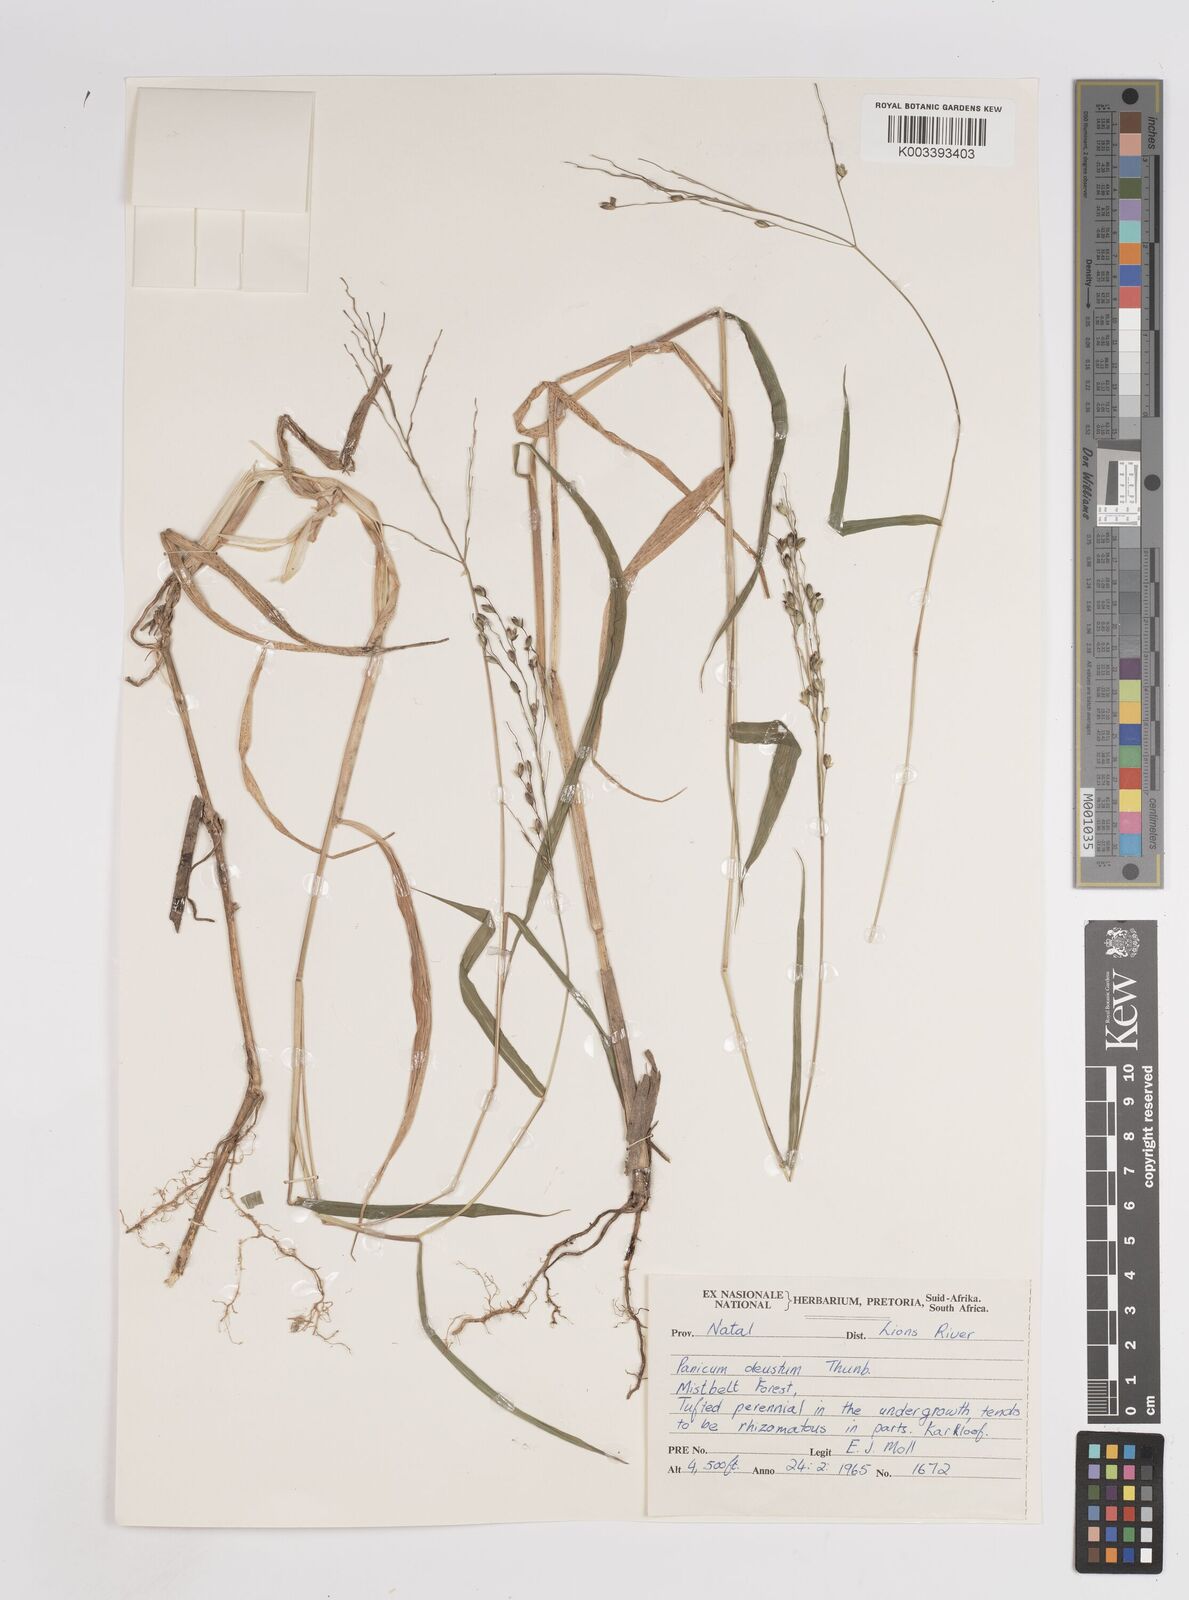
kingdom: Plantae
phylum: Tracheophyta
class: Liliopsida
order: Poales
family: Poaceae
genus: Panicum
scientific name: Panicum deustum
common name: Reed panicum
